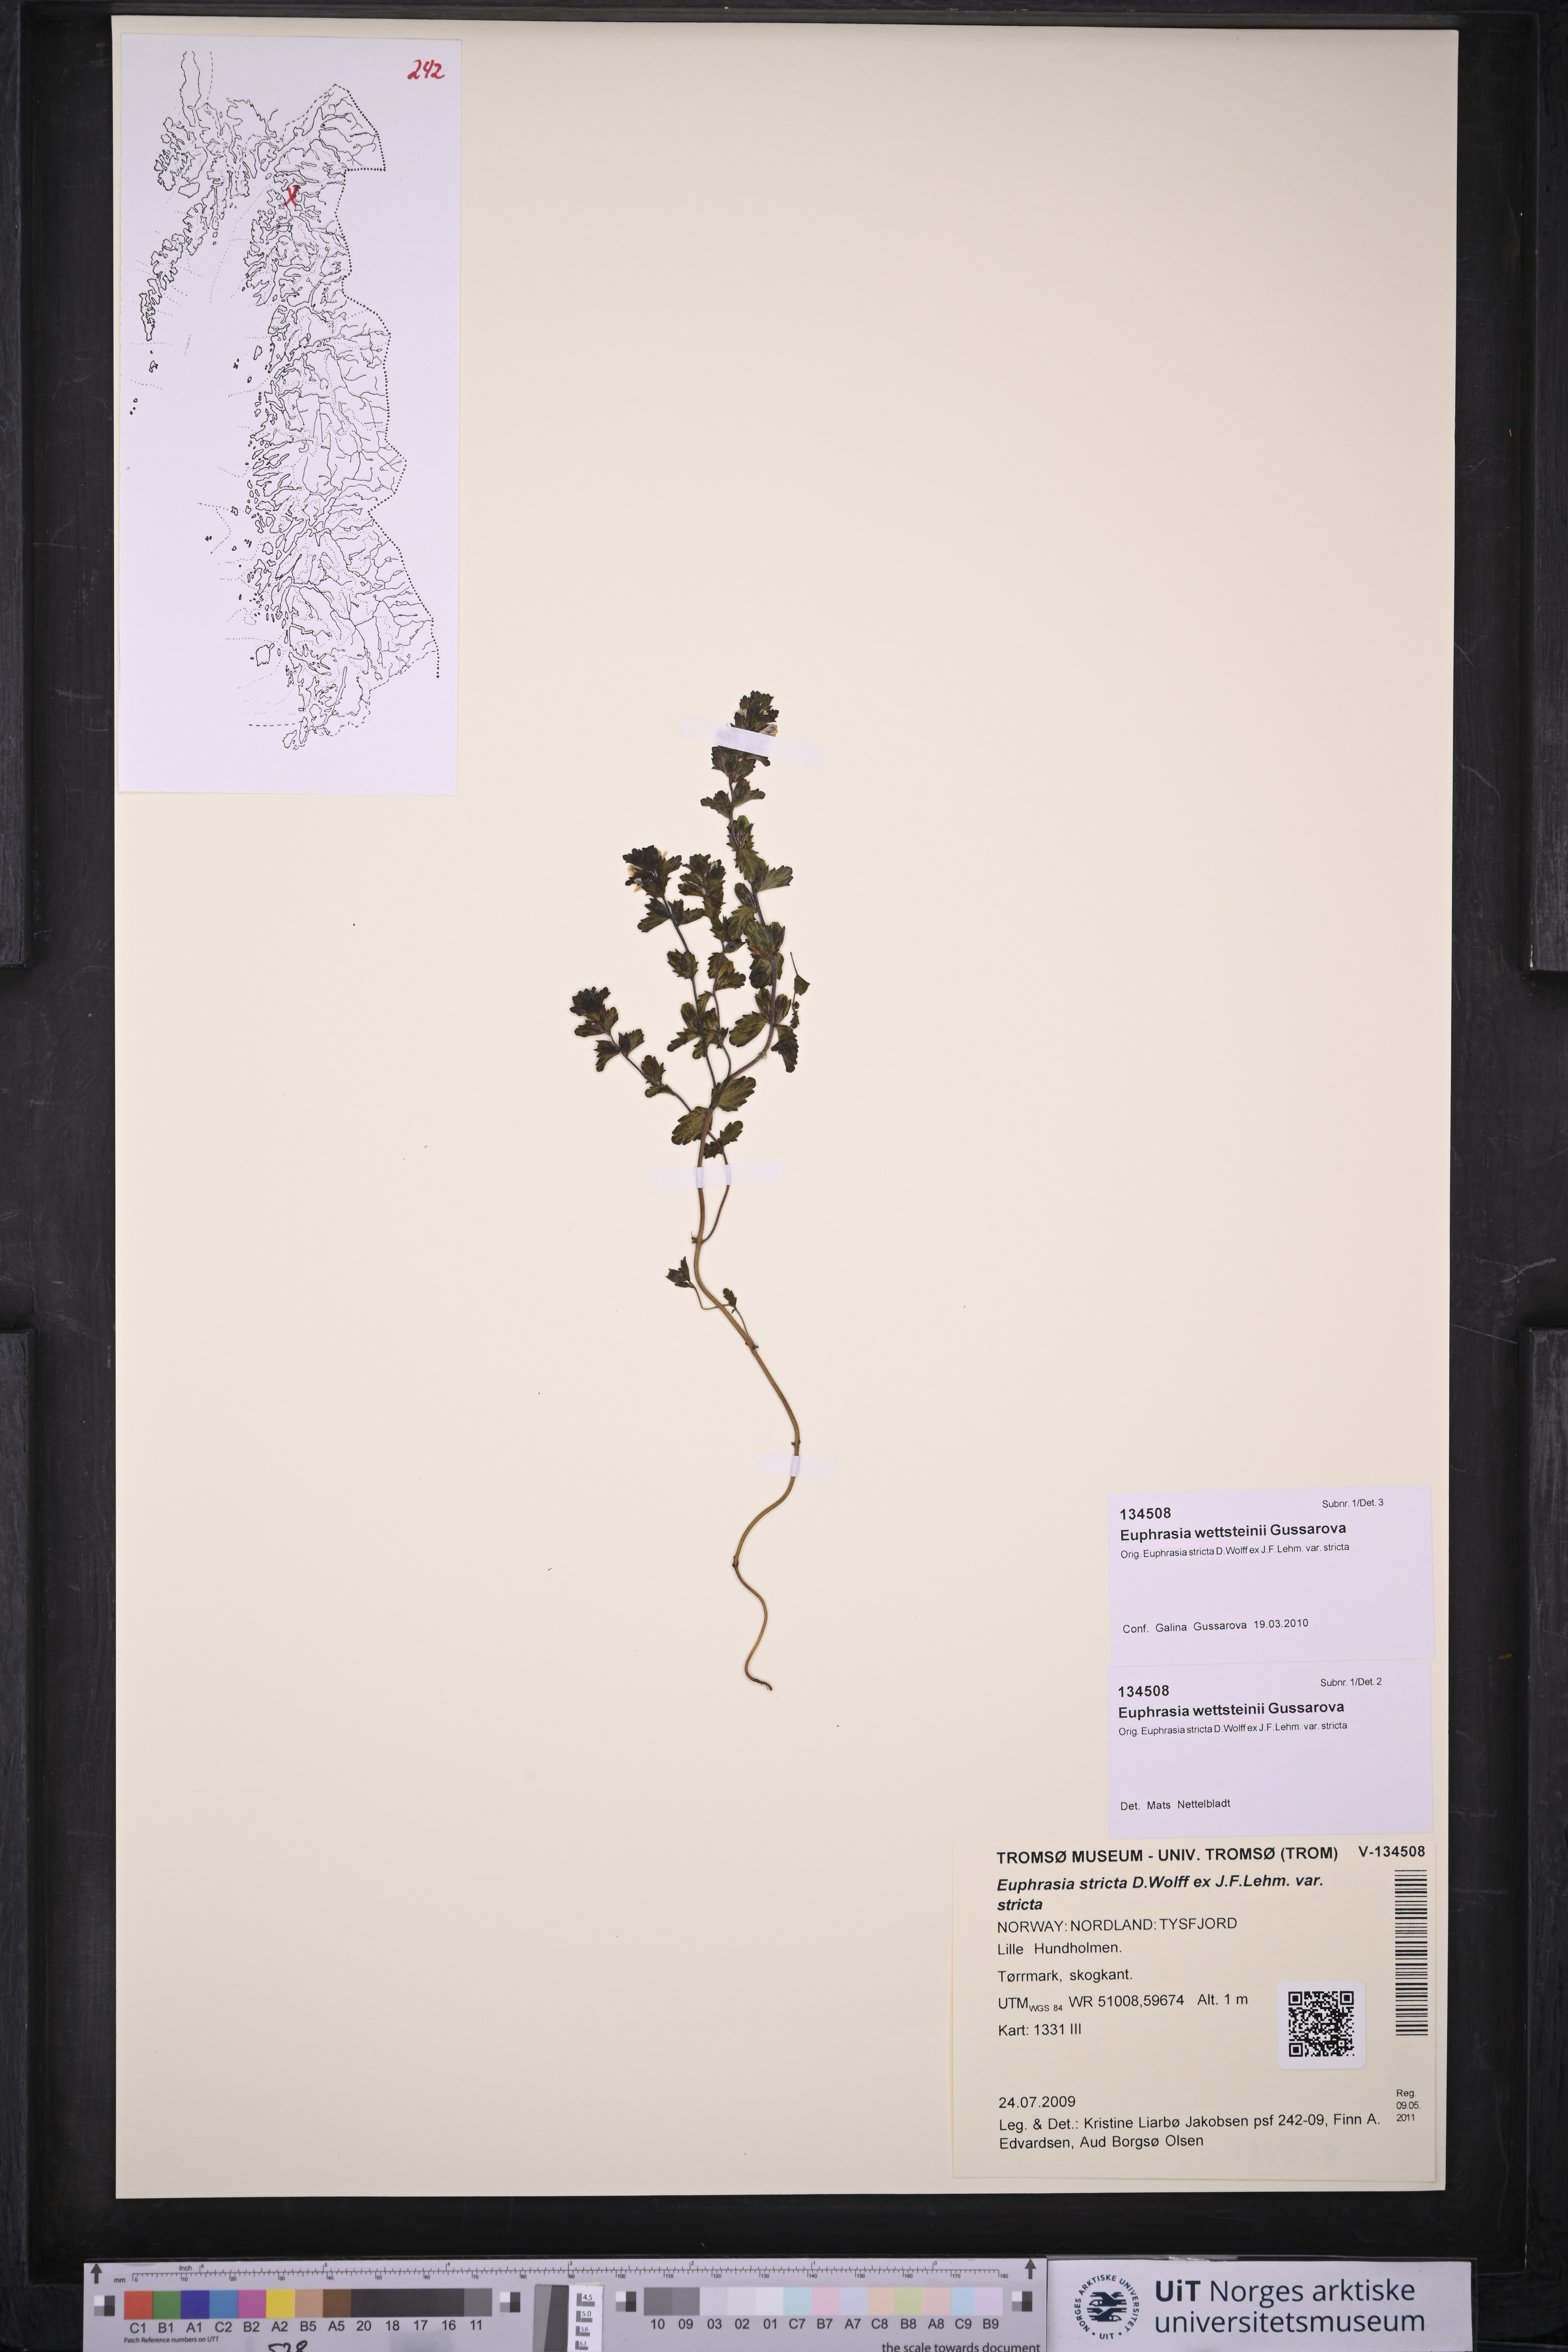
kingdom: Plantae
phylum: Tracheophyta
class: Magnoliopsida
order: Lamiales
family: Orobanchaceae
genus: Euphrasia
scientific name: Euphrasia wettsteinii
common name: Wettstein's eyebright
